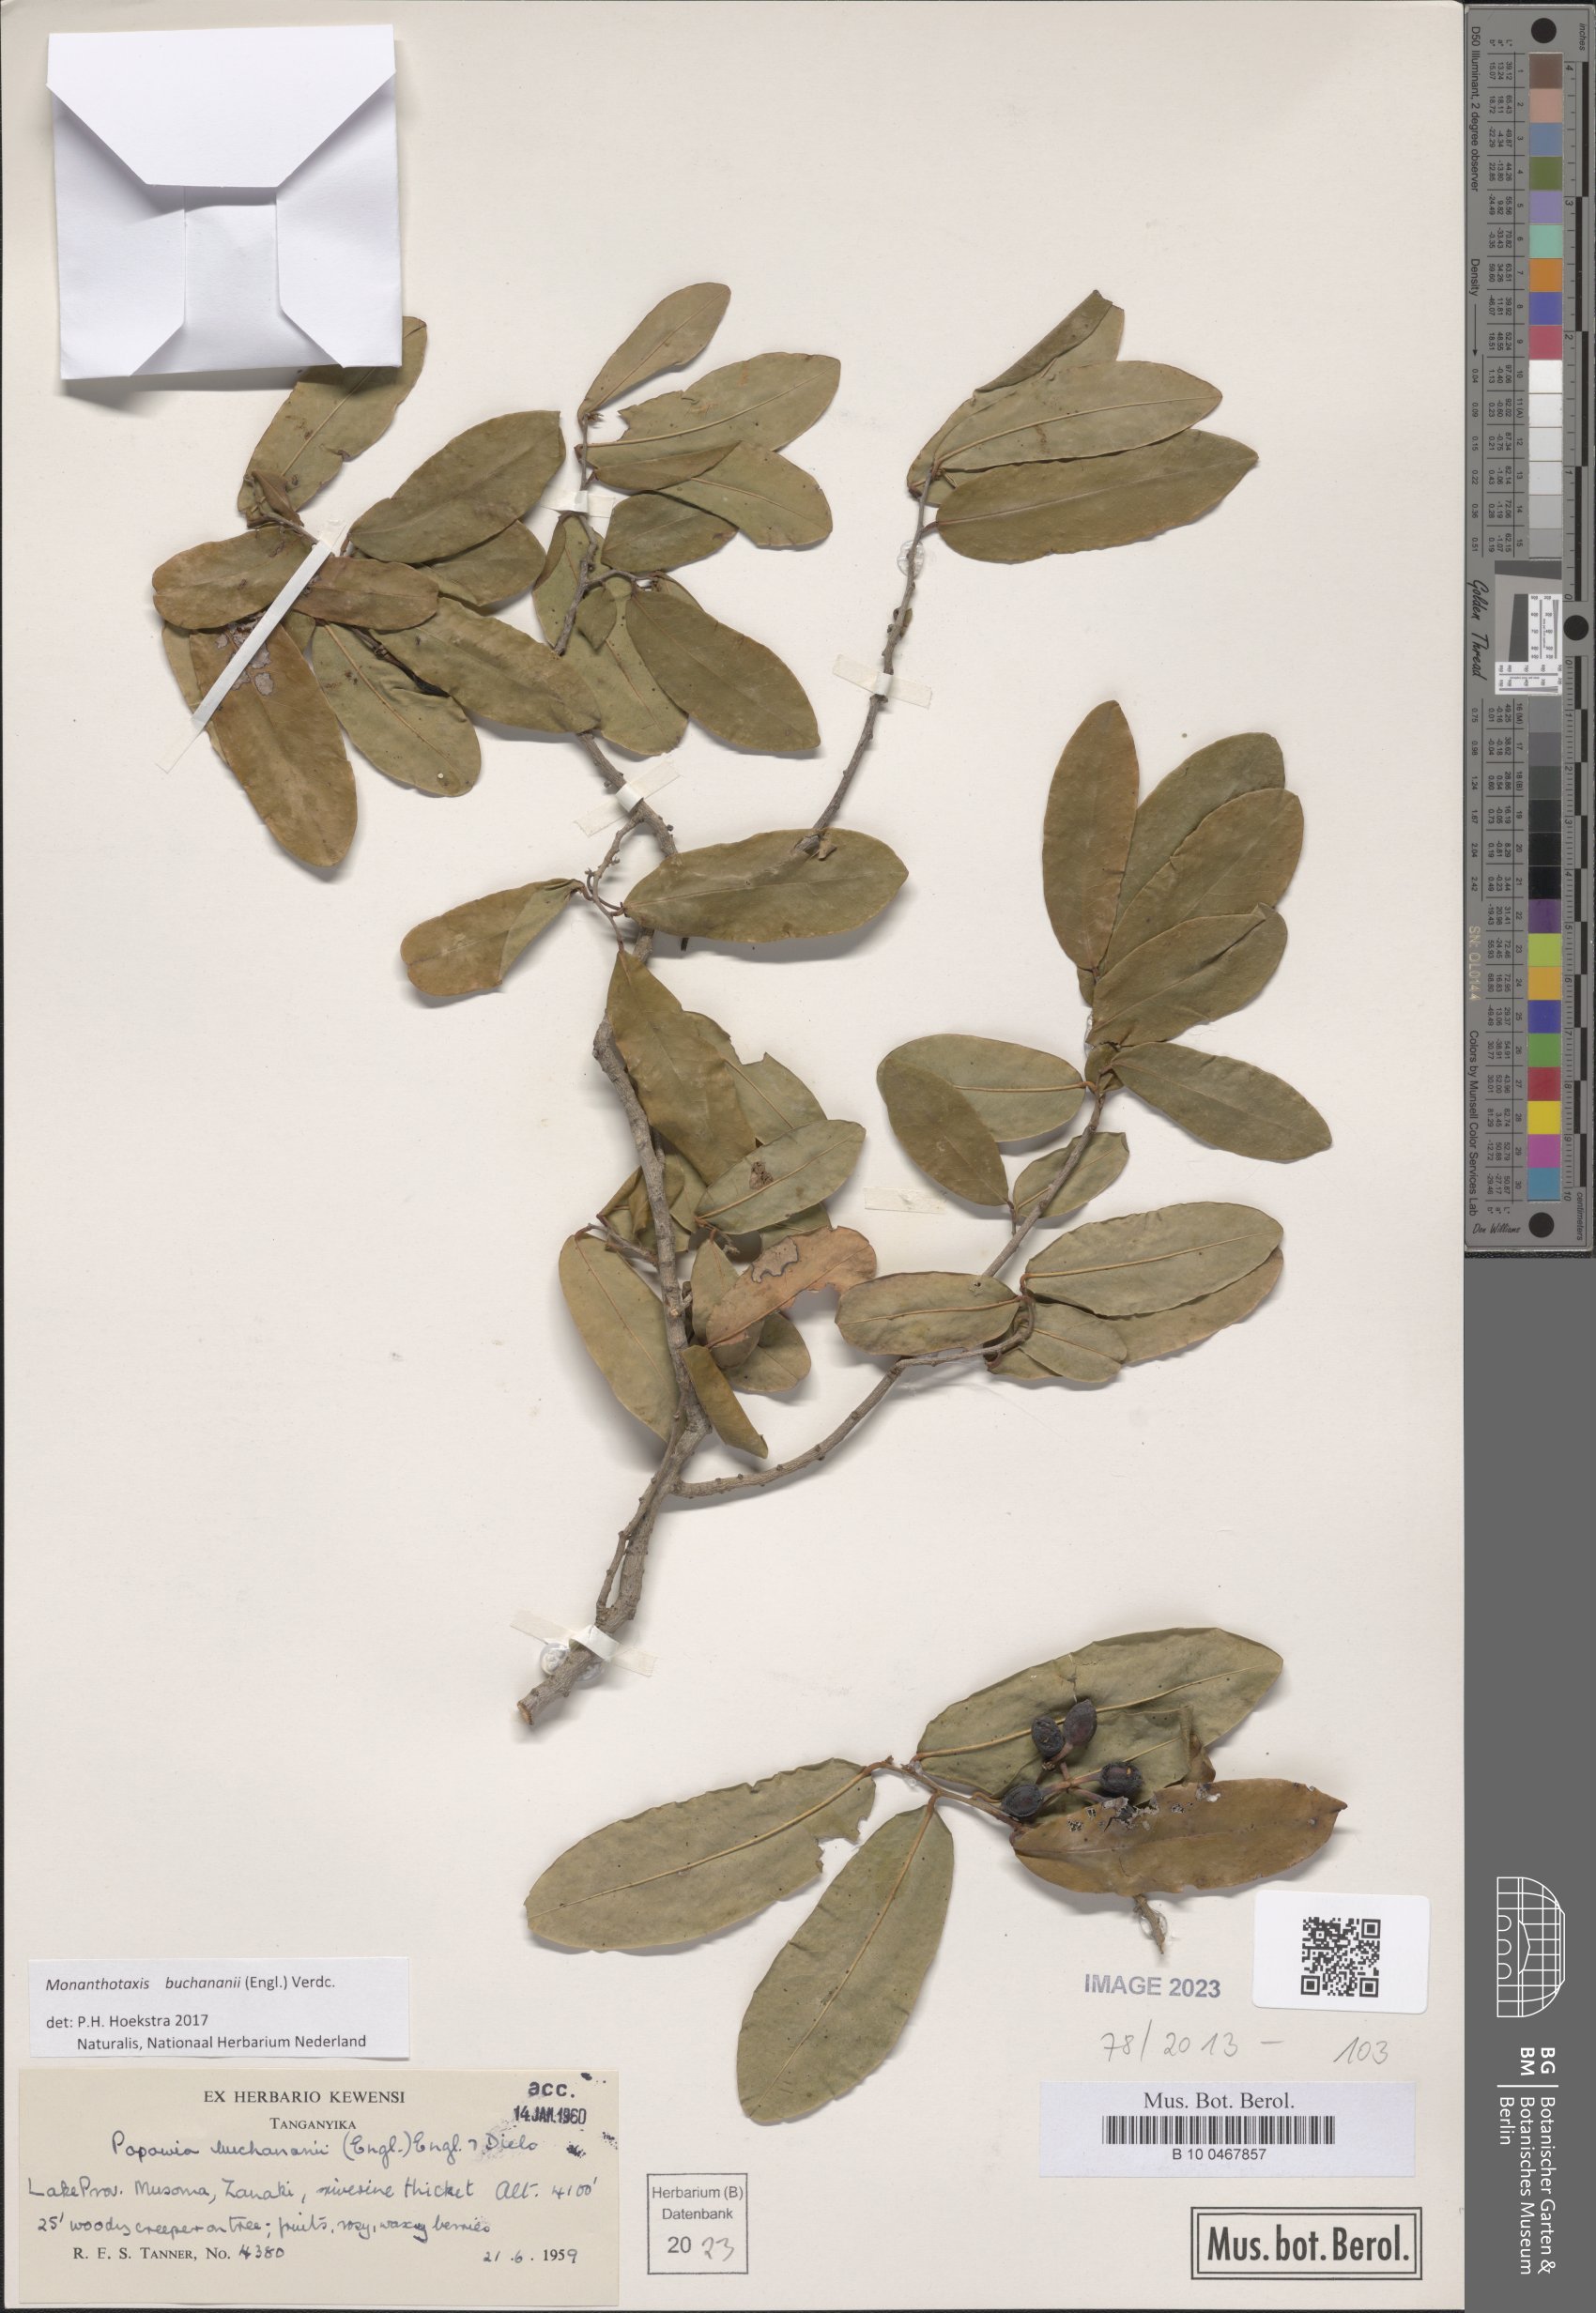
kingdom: Plantae
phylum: Tracheophyta
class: Magnoliopsida
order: Magnoliales
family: Annonaceae
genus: Monanthotaxis
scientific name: Monanthotaxis buchananii
